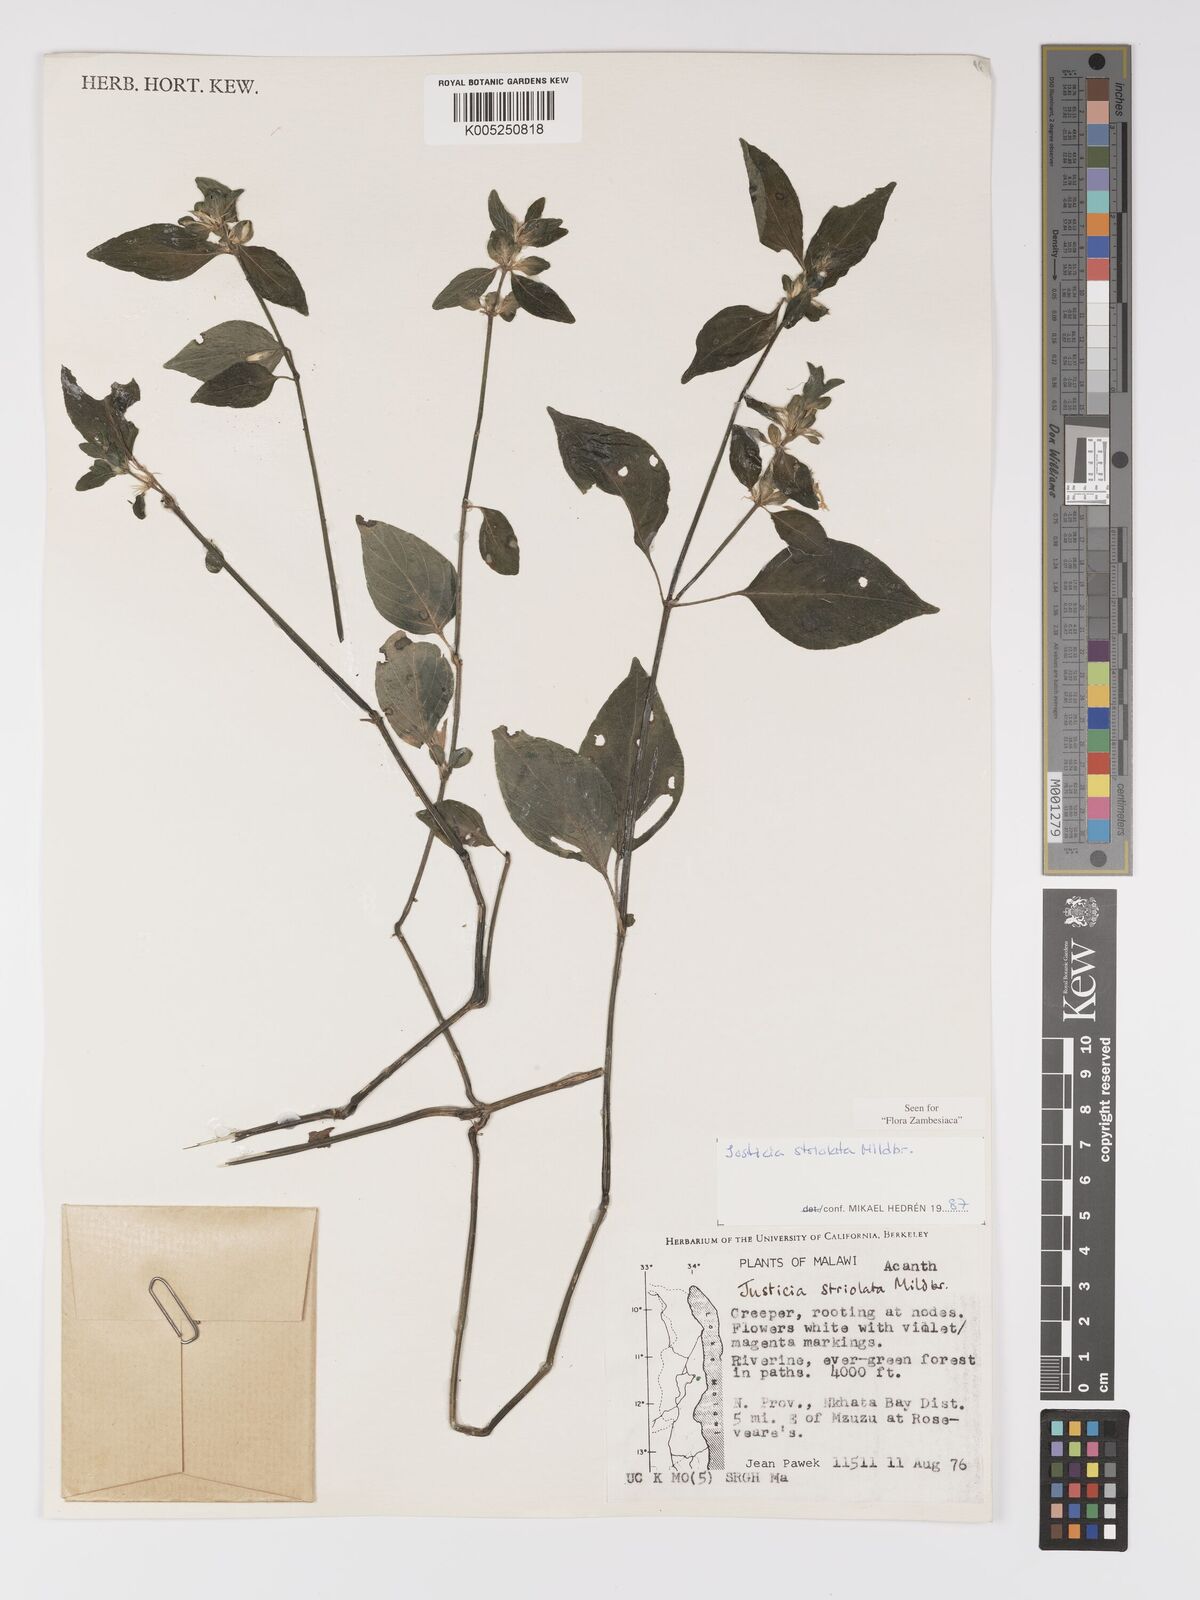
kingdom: Plantae
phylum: Tracheophyta
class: Magnoliopsida
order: Lamiales
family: Acanthaceae
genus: Justicia
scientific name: Justicia striolata
